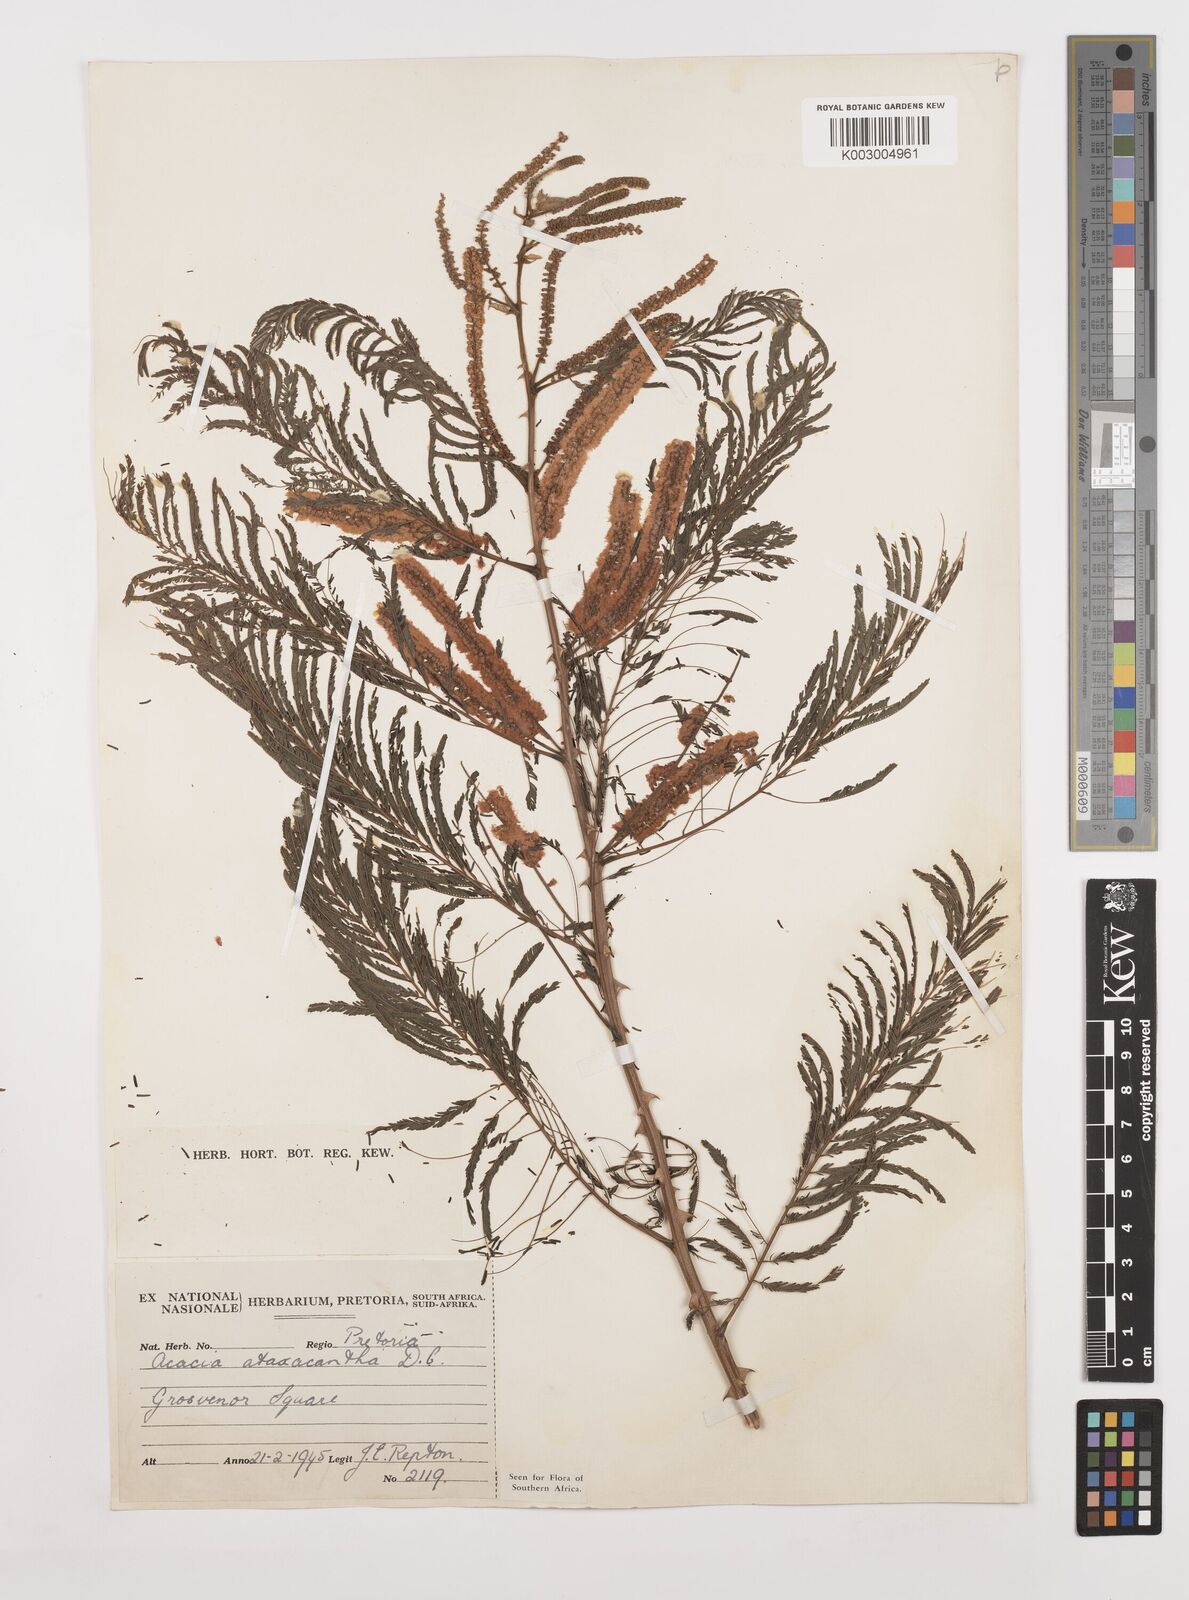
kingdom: Plantae
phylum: Tracheophyta
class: Magnoliopsida
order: Fabales
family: Fabaceae
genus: Senegalia
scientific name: Senegalia ataxacantha
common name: Flame acacia
